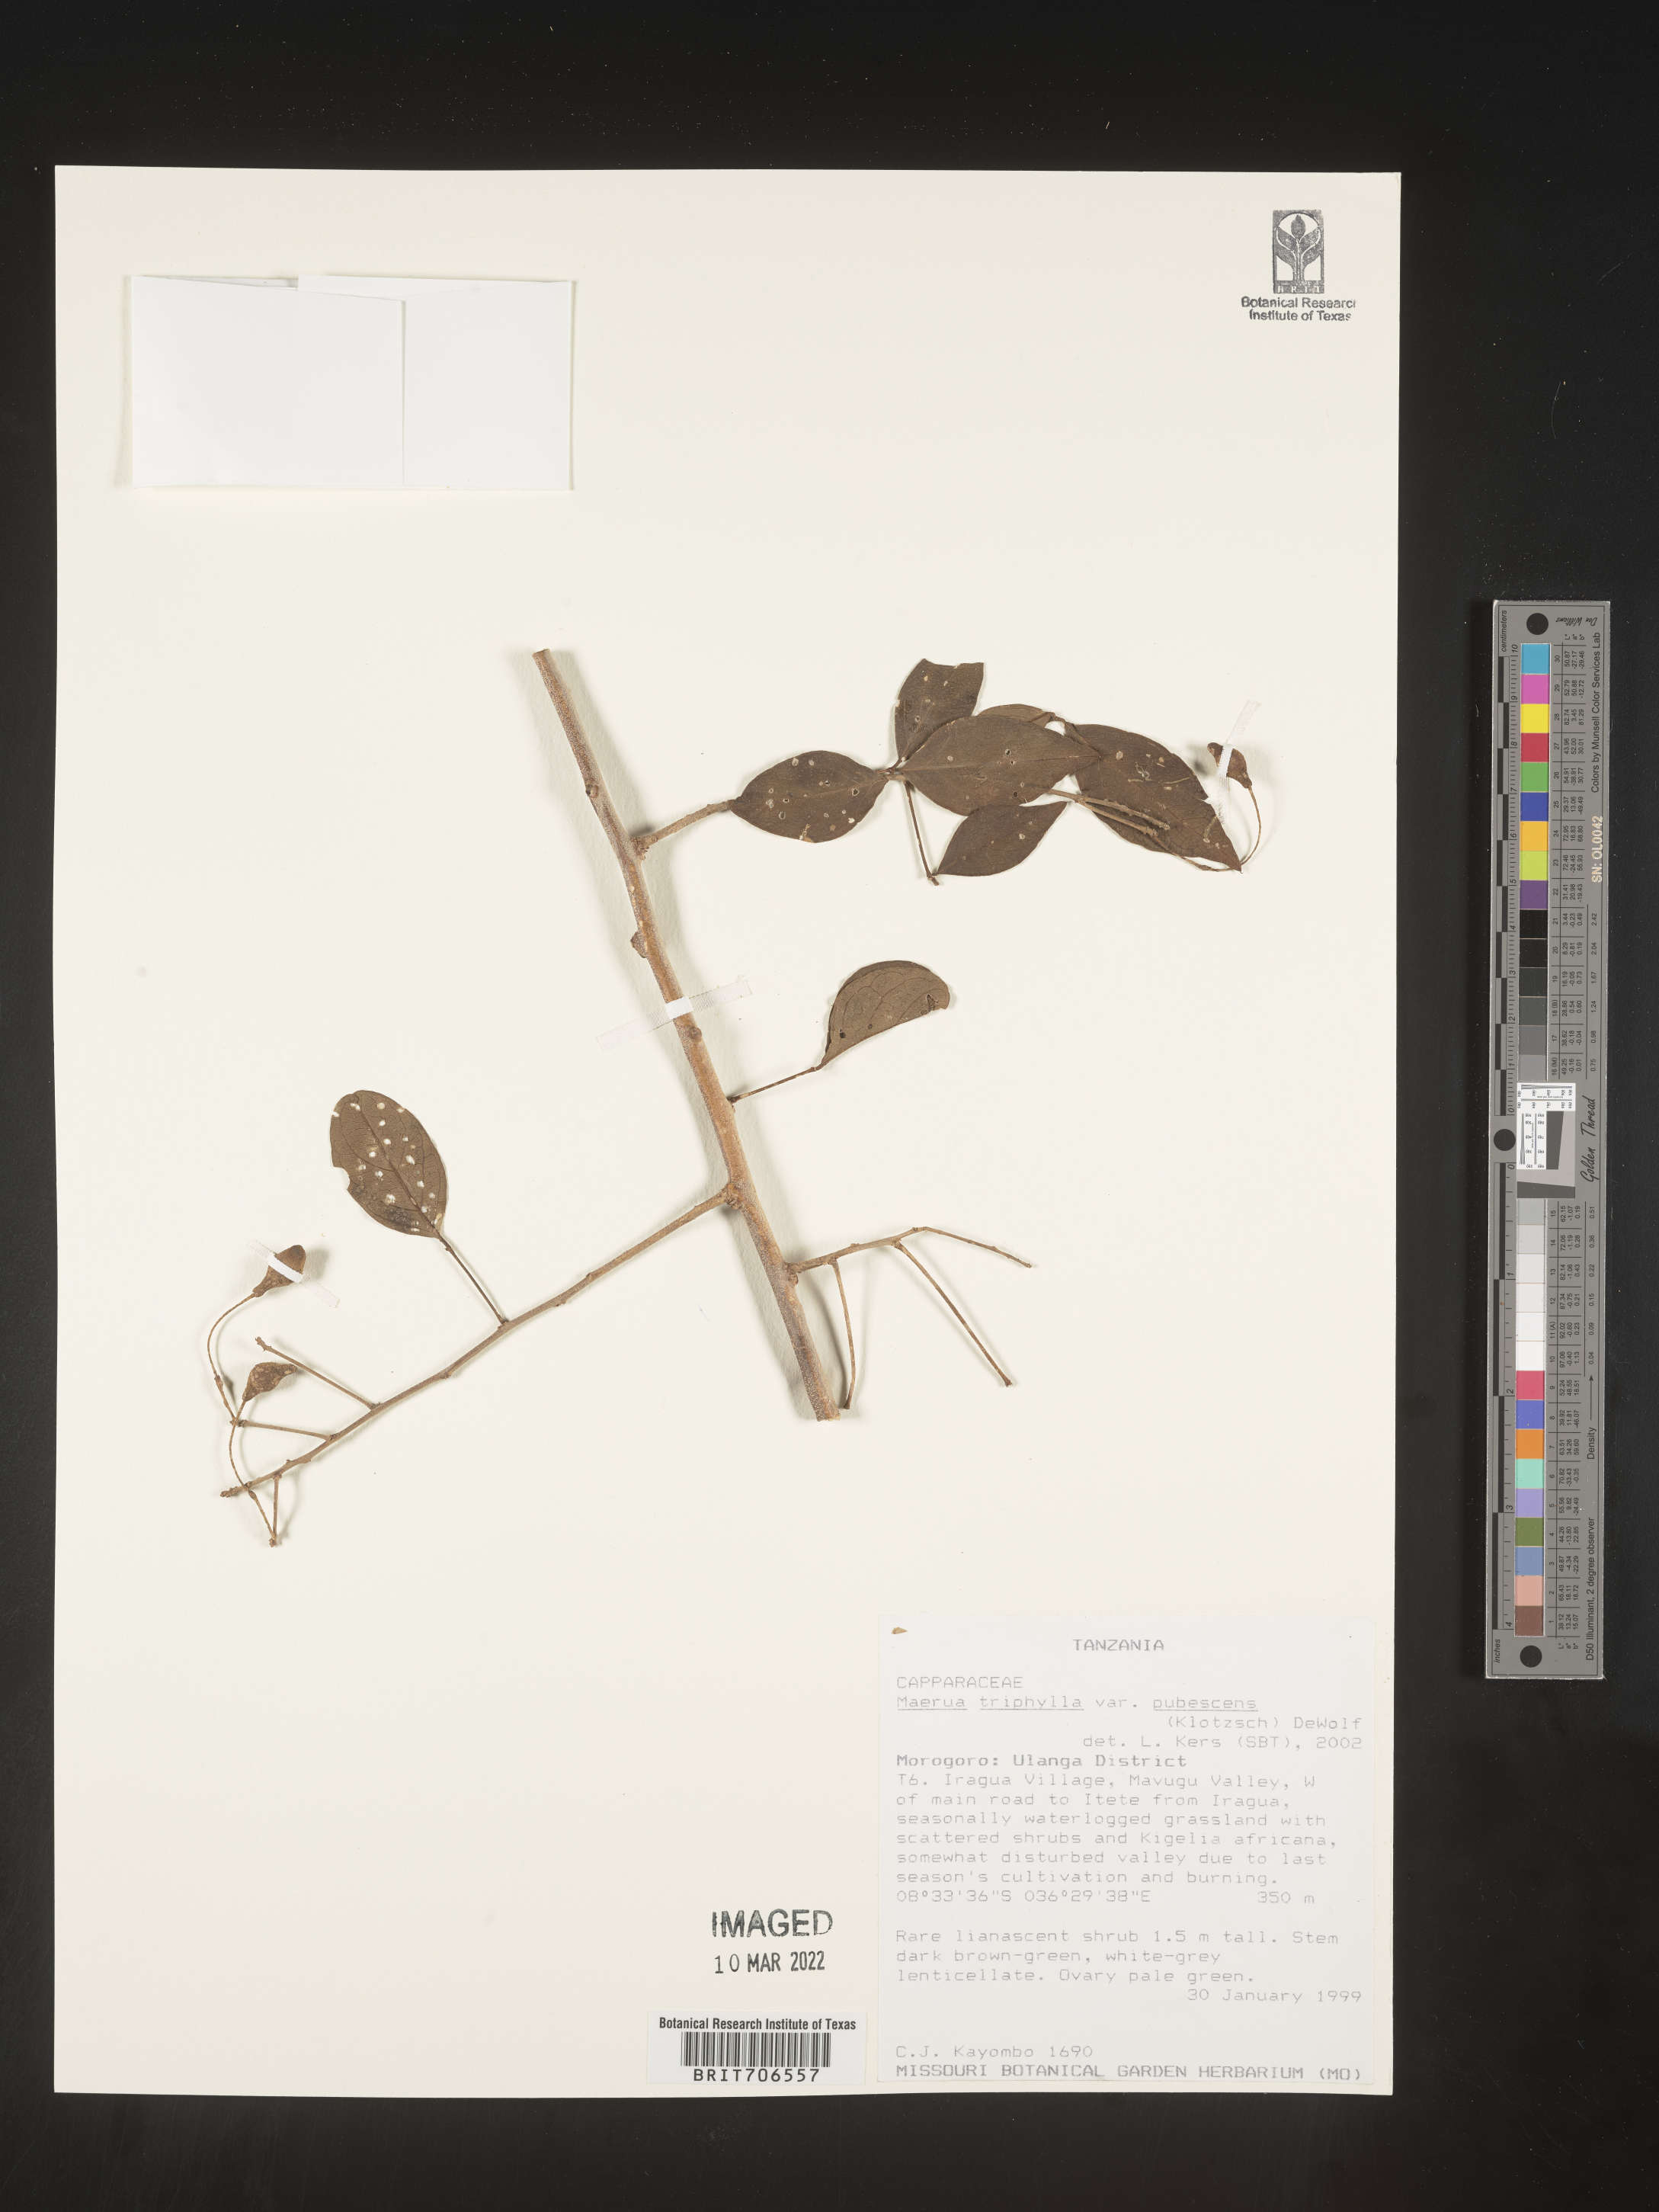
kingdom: Plantae
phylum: Tracheophyta
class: Magnoliopsida
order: Brassicales
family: Capparaceae
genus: Maerua
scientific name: Maerua
